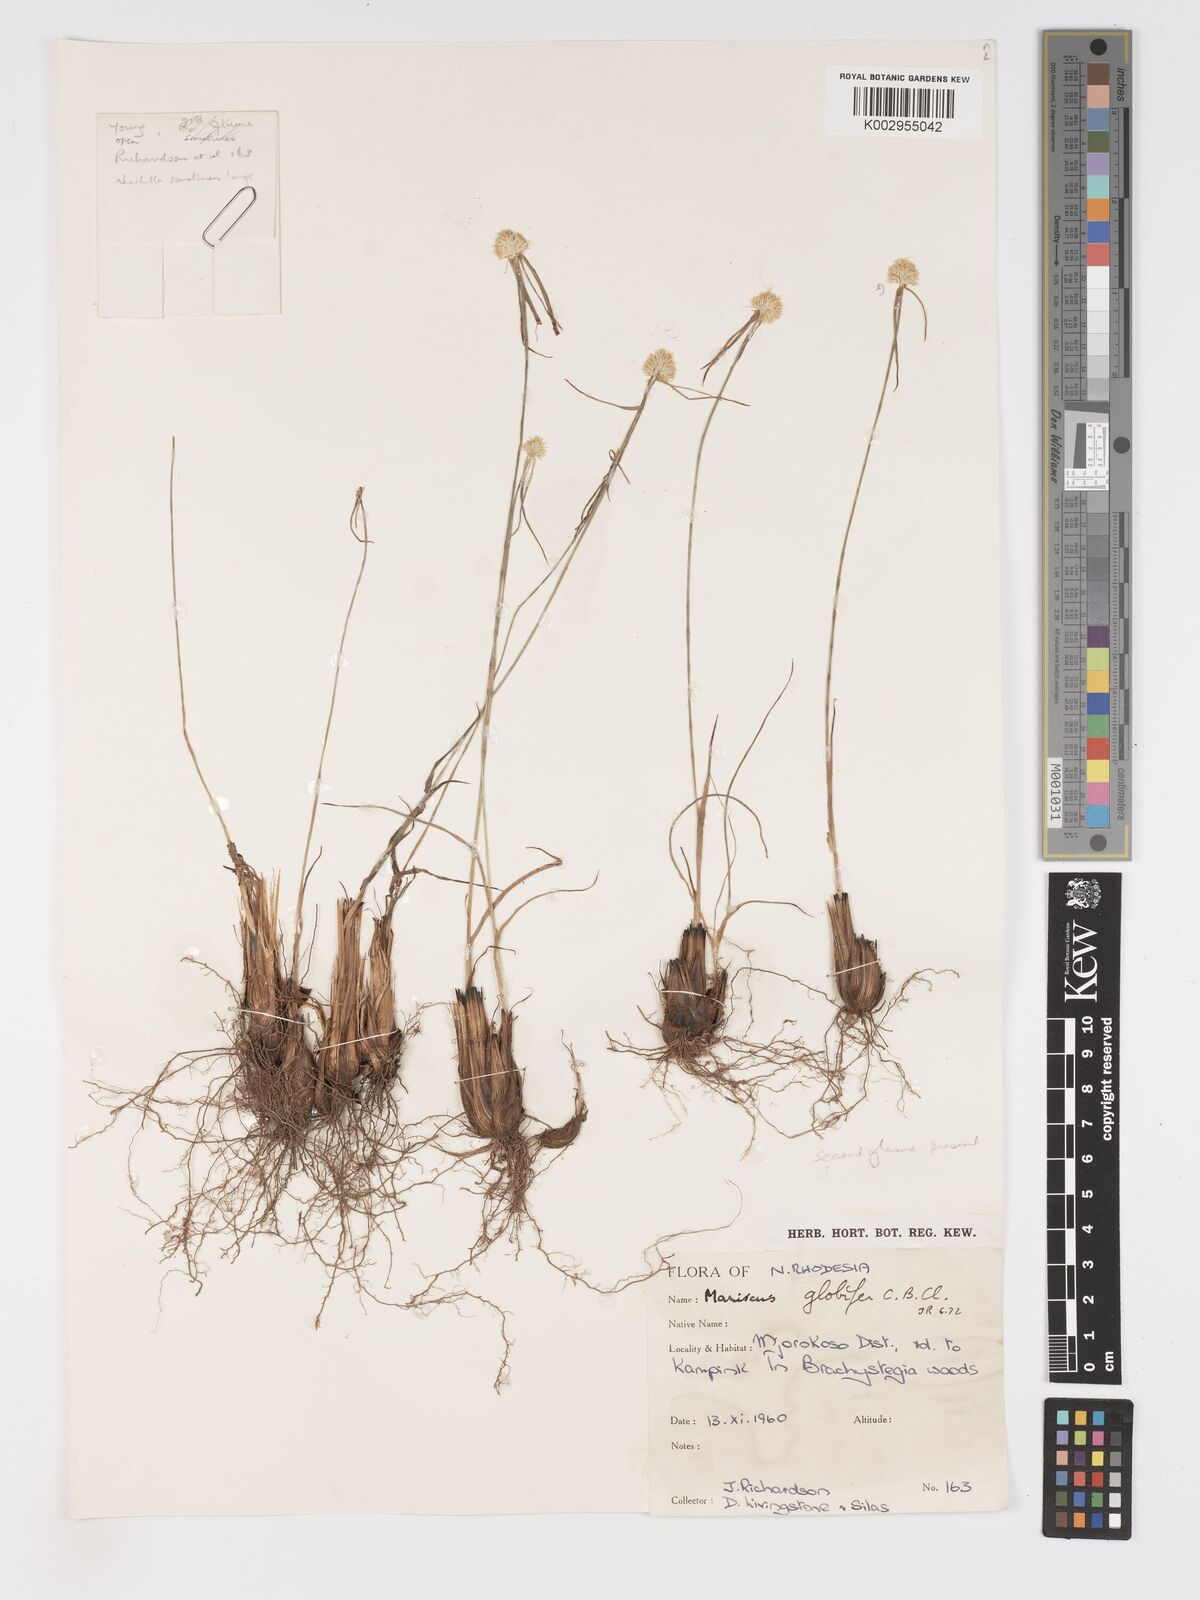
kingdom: Plantae
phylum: Tracheophyta
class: Liliopsida
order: Poales
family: Cyperaceae
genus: Cyperus
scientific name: Cyperus mollipes
